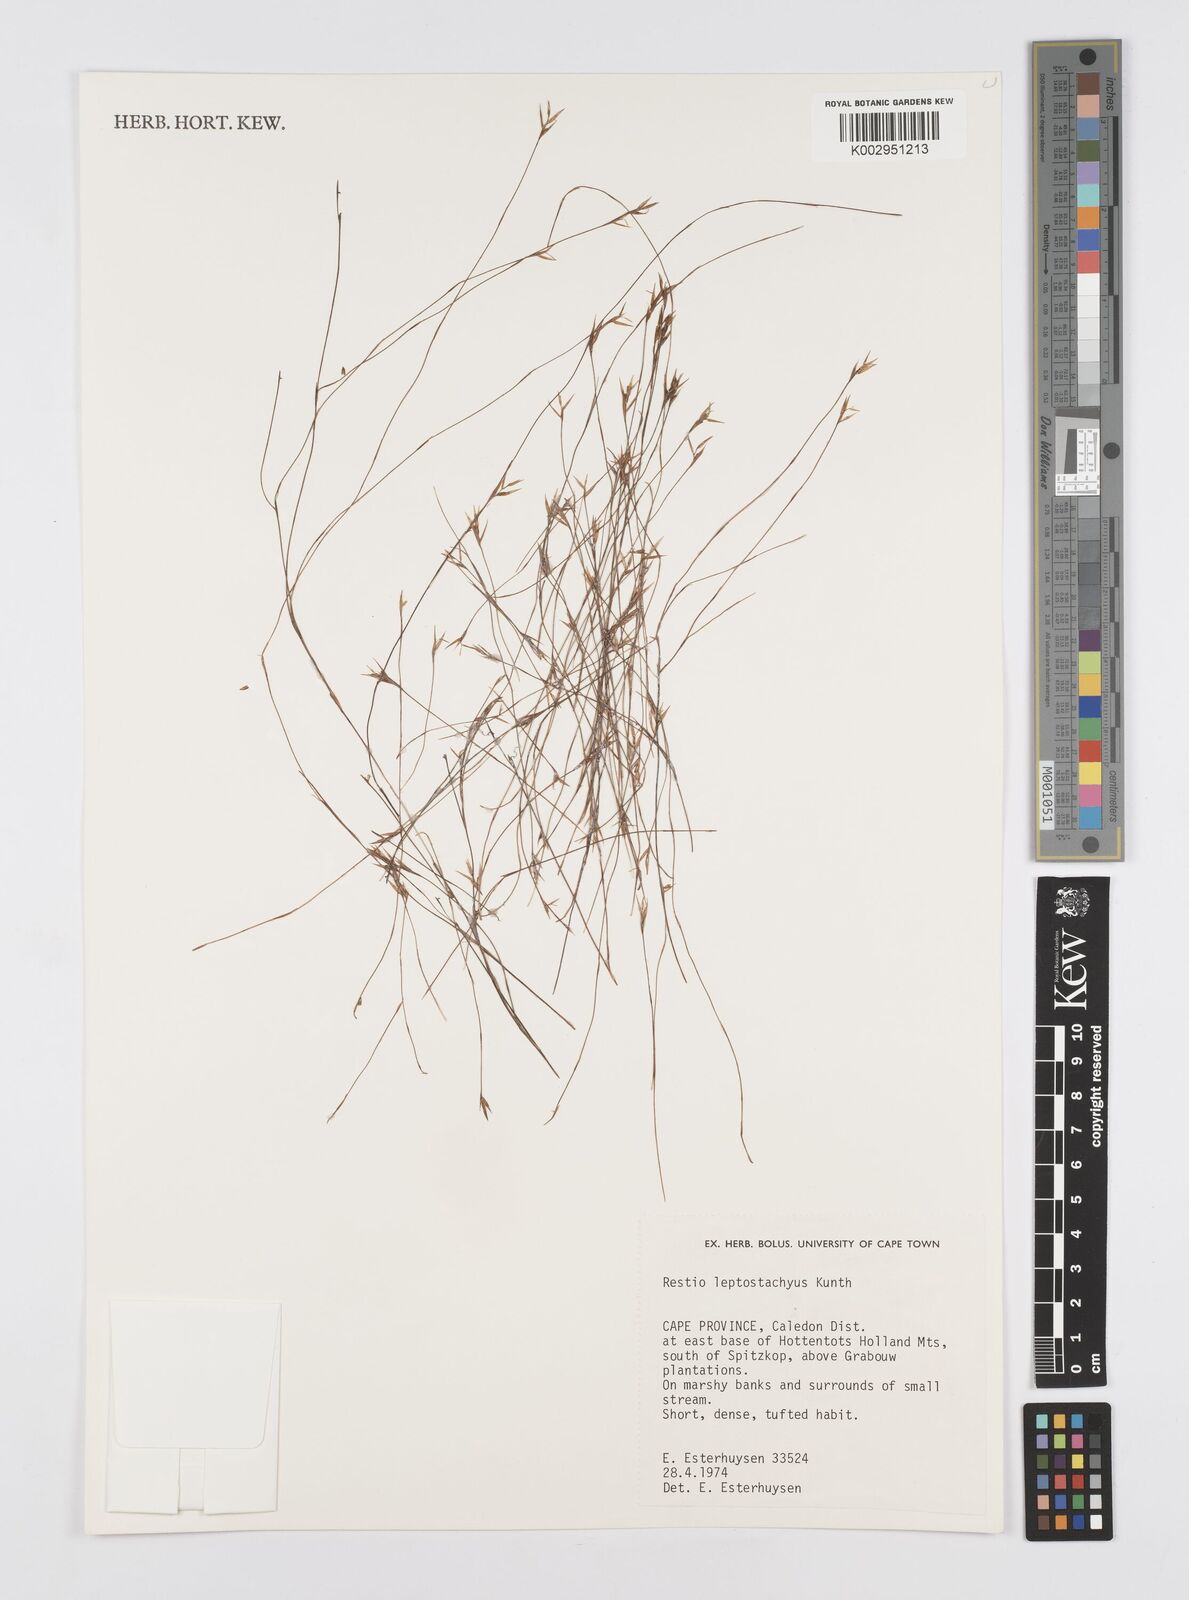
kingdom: Plantae
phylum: Tracheophyta
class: Liliopsida
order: Poales
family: Restionaceae
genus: Restio
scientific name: Restio leptostachyus
